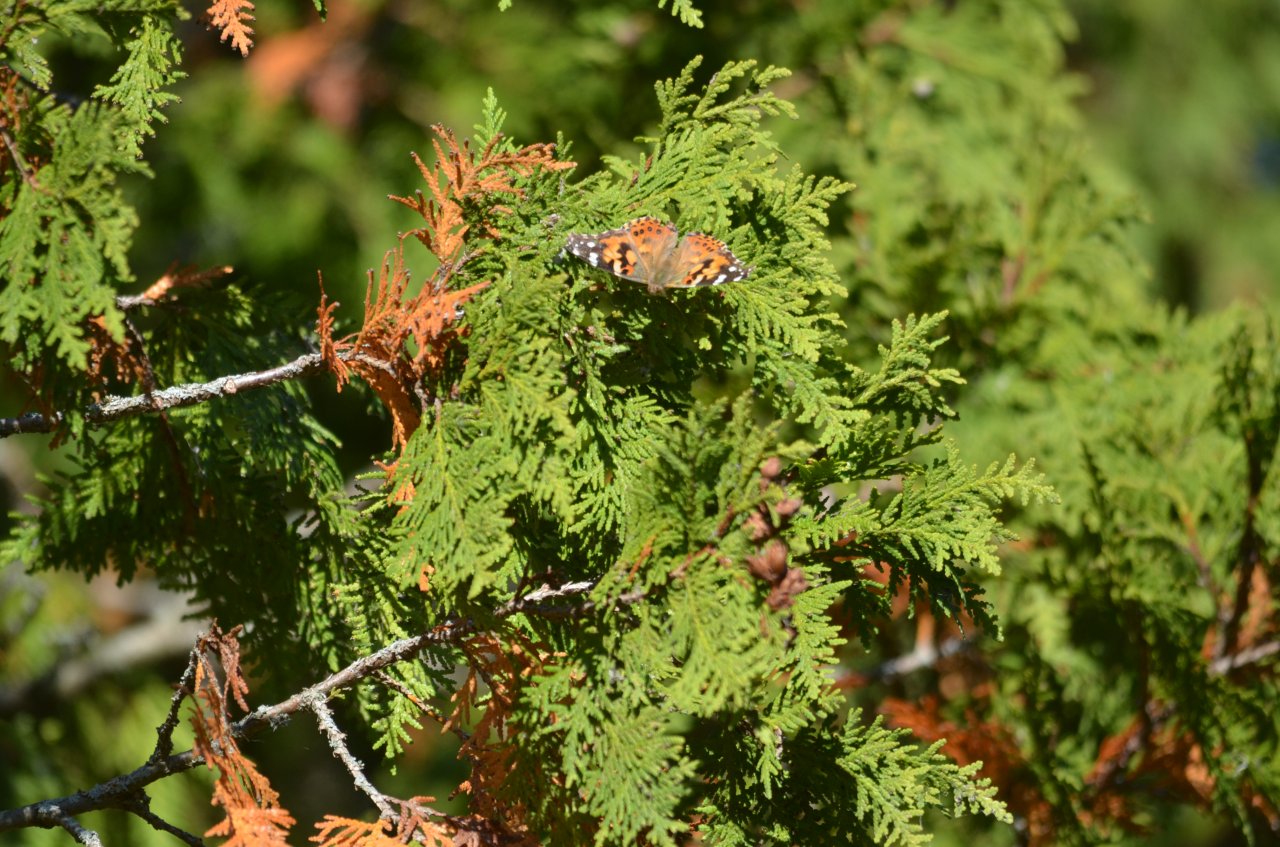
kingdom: Animalia
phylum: Arthropoda
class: Insecta
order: Lepidoptera
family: Nymphalidae
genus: Vanessa
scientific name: Vanessa cardui
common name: Painted Lady
